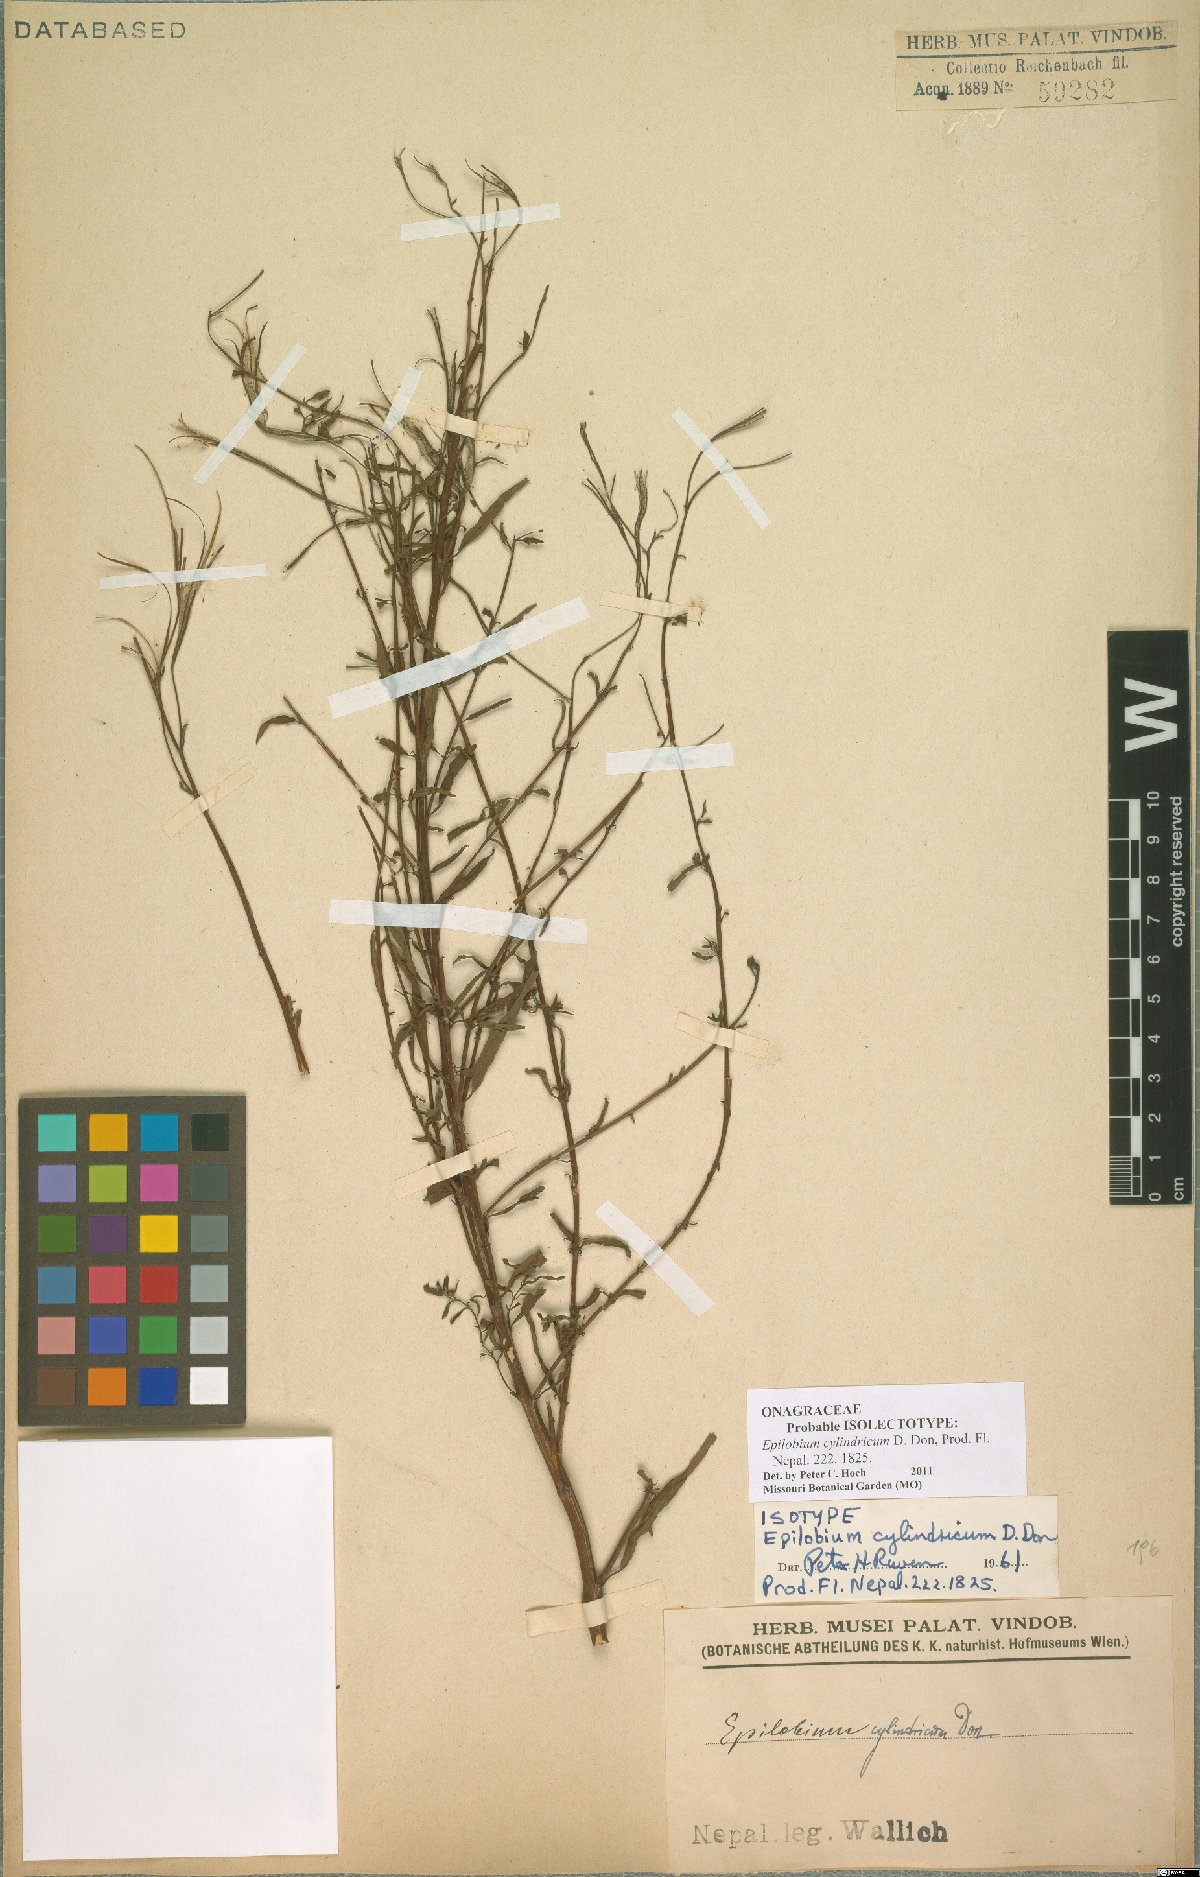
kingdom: Plantae
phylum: Tracheophyta
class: Magnoliopsida
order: Myrtales
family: Onagraceae
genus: Epilobium
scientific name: Epilobium cylindricum
